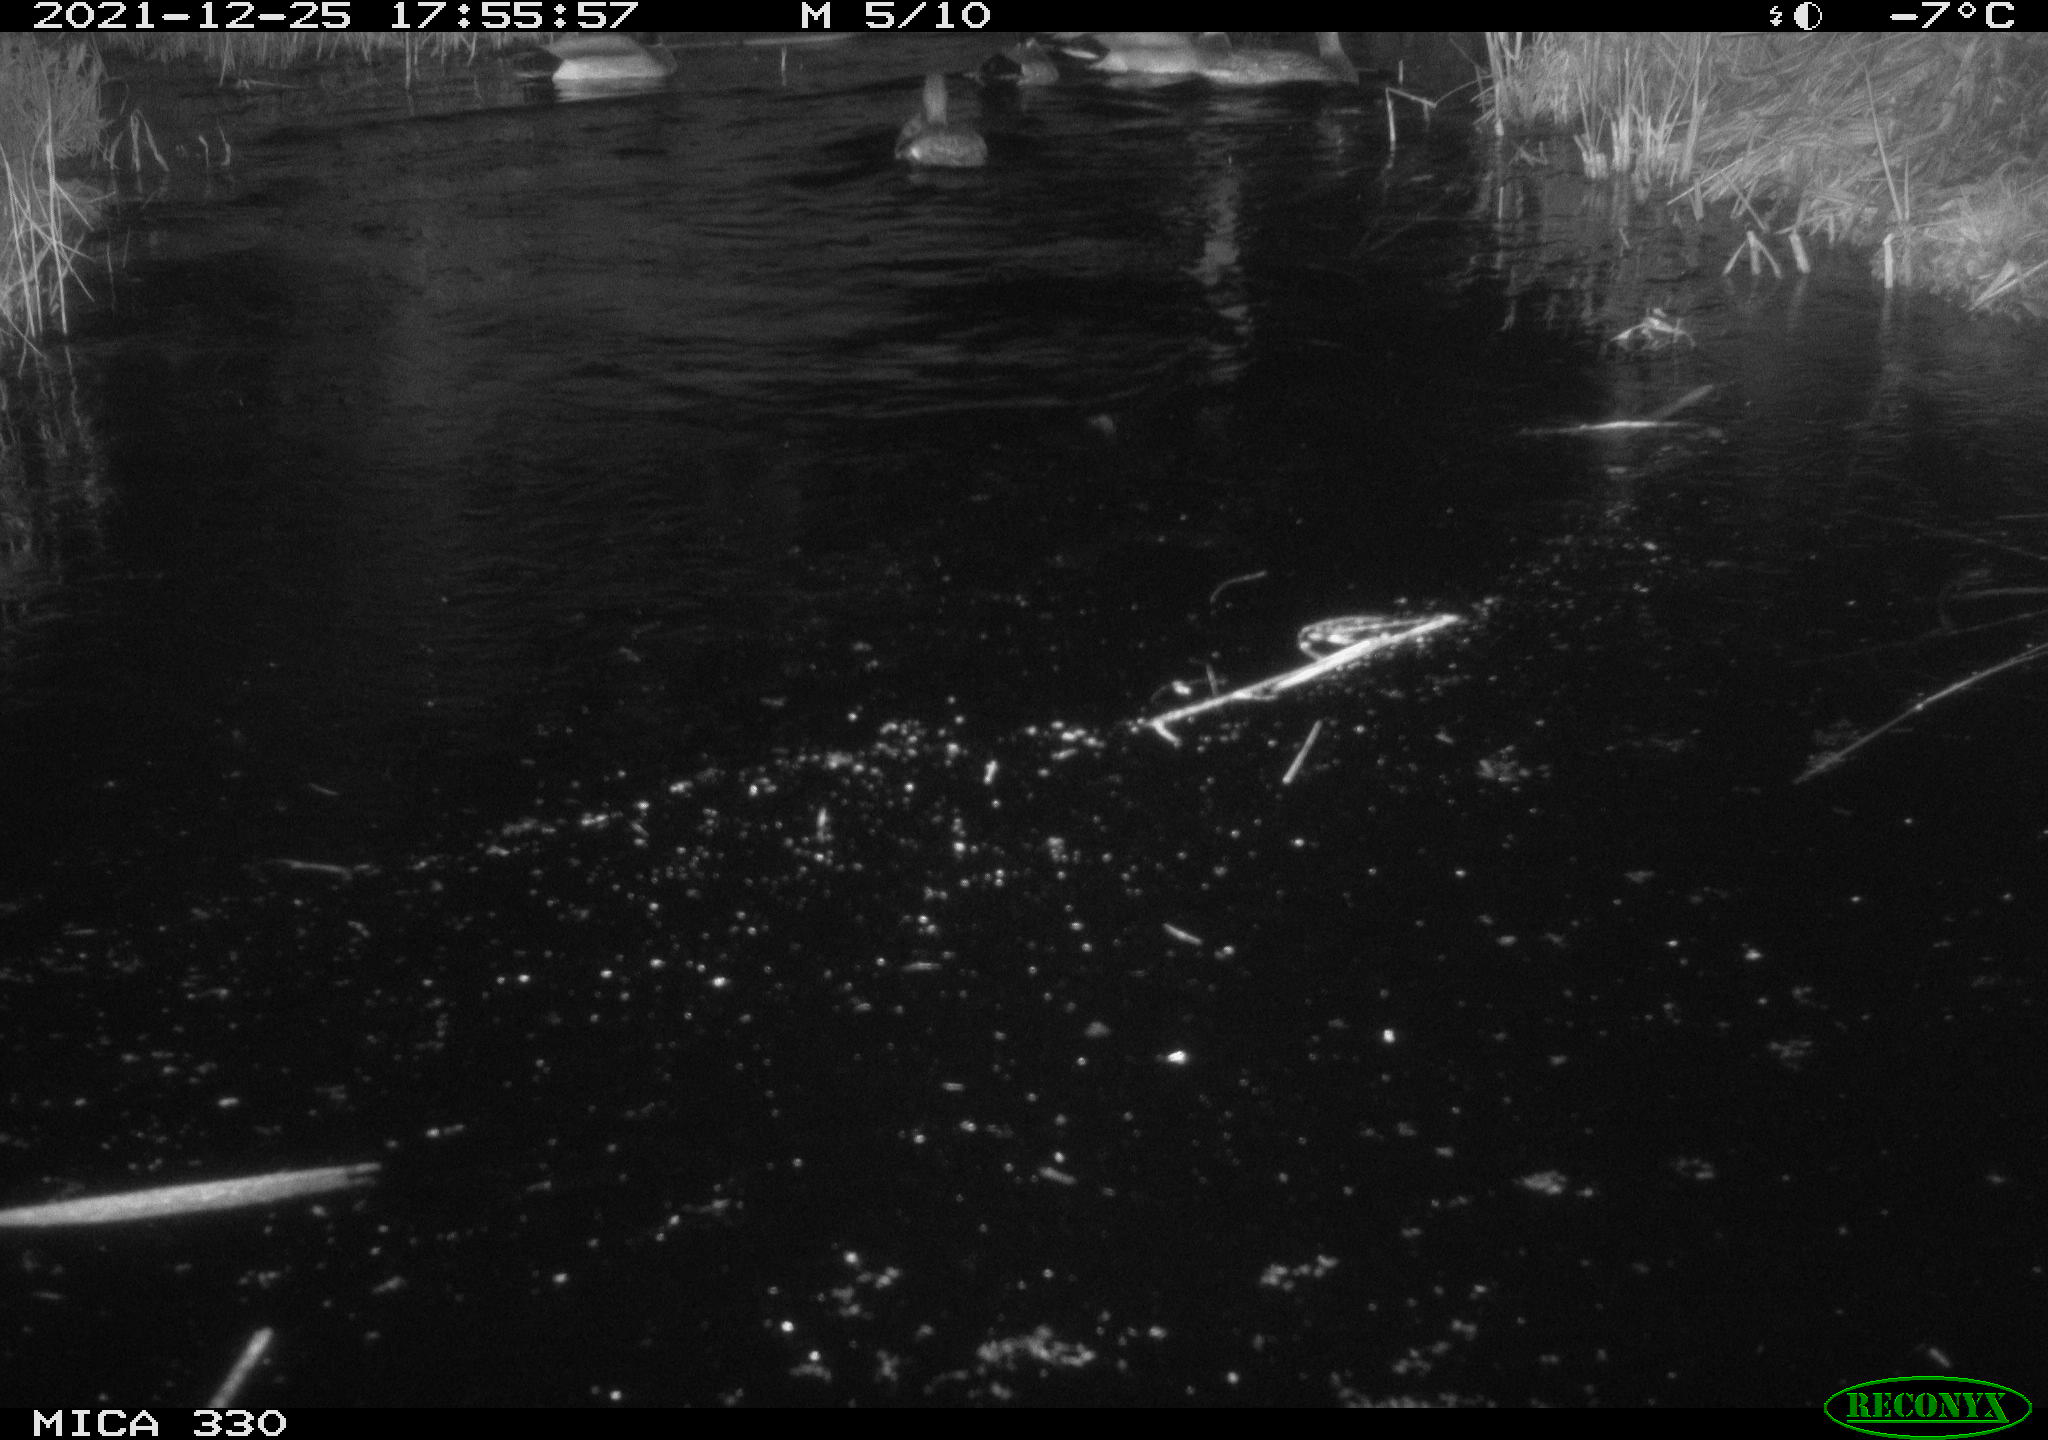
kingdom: Animalia
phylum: Chordata
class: Aves
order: Anseriformes
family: Anatidae
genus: Anas
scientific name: Anas platyrhynchos
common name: Mallard
